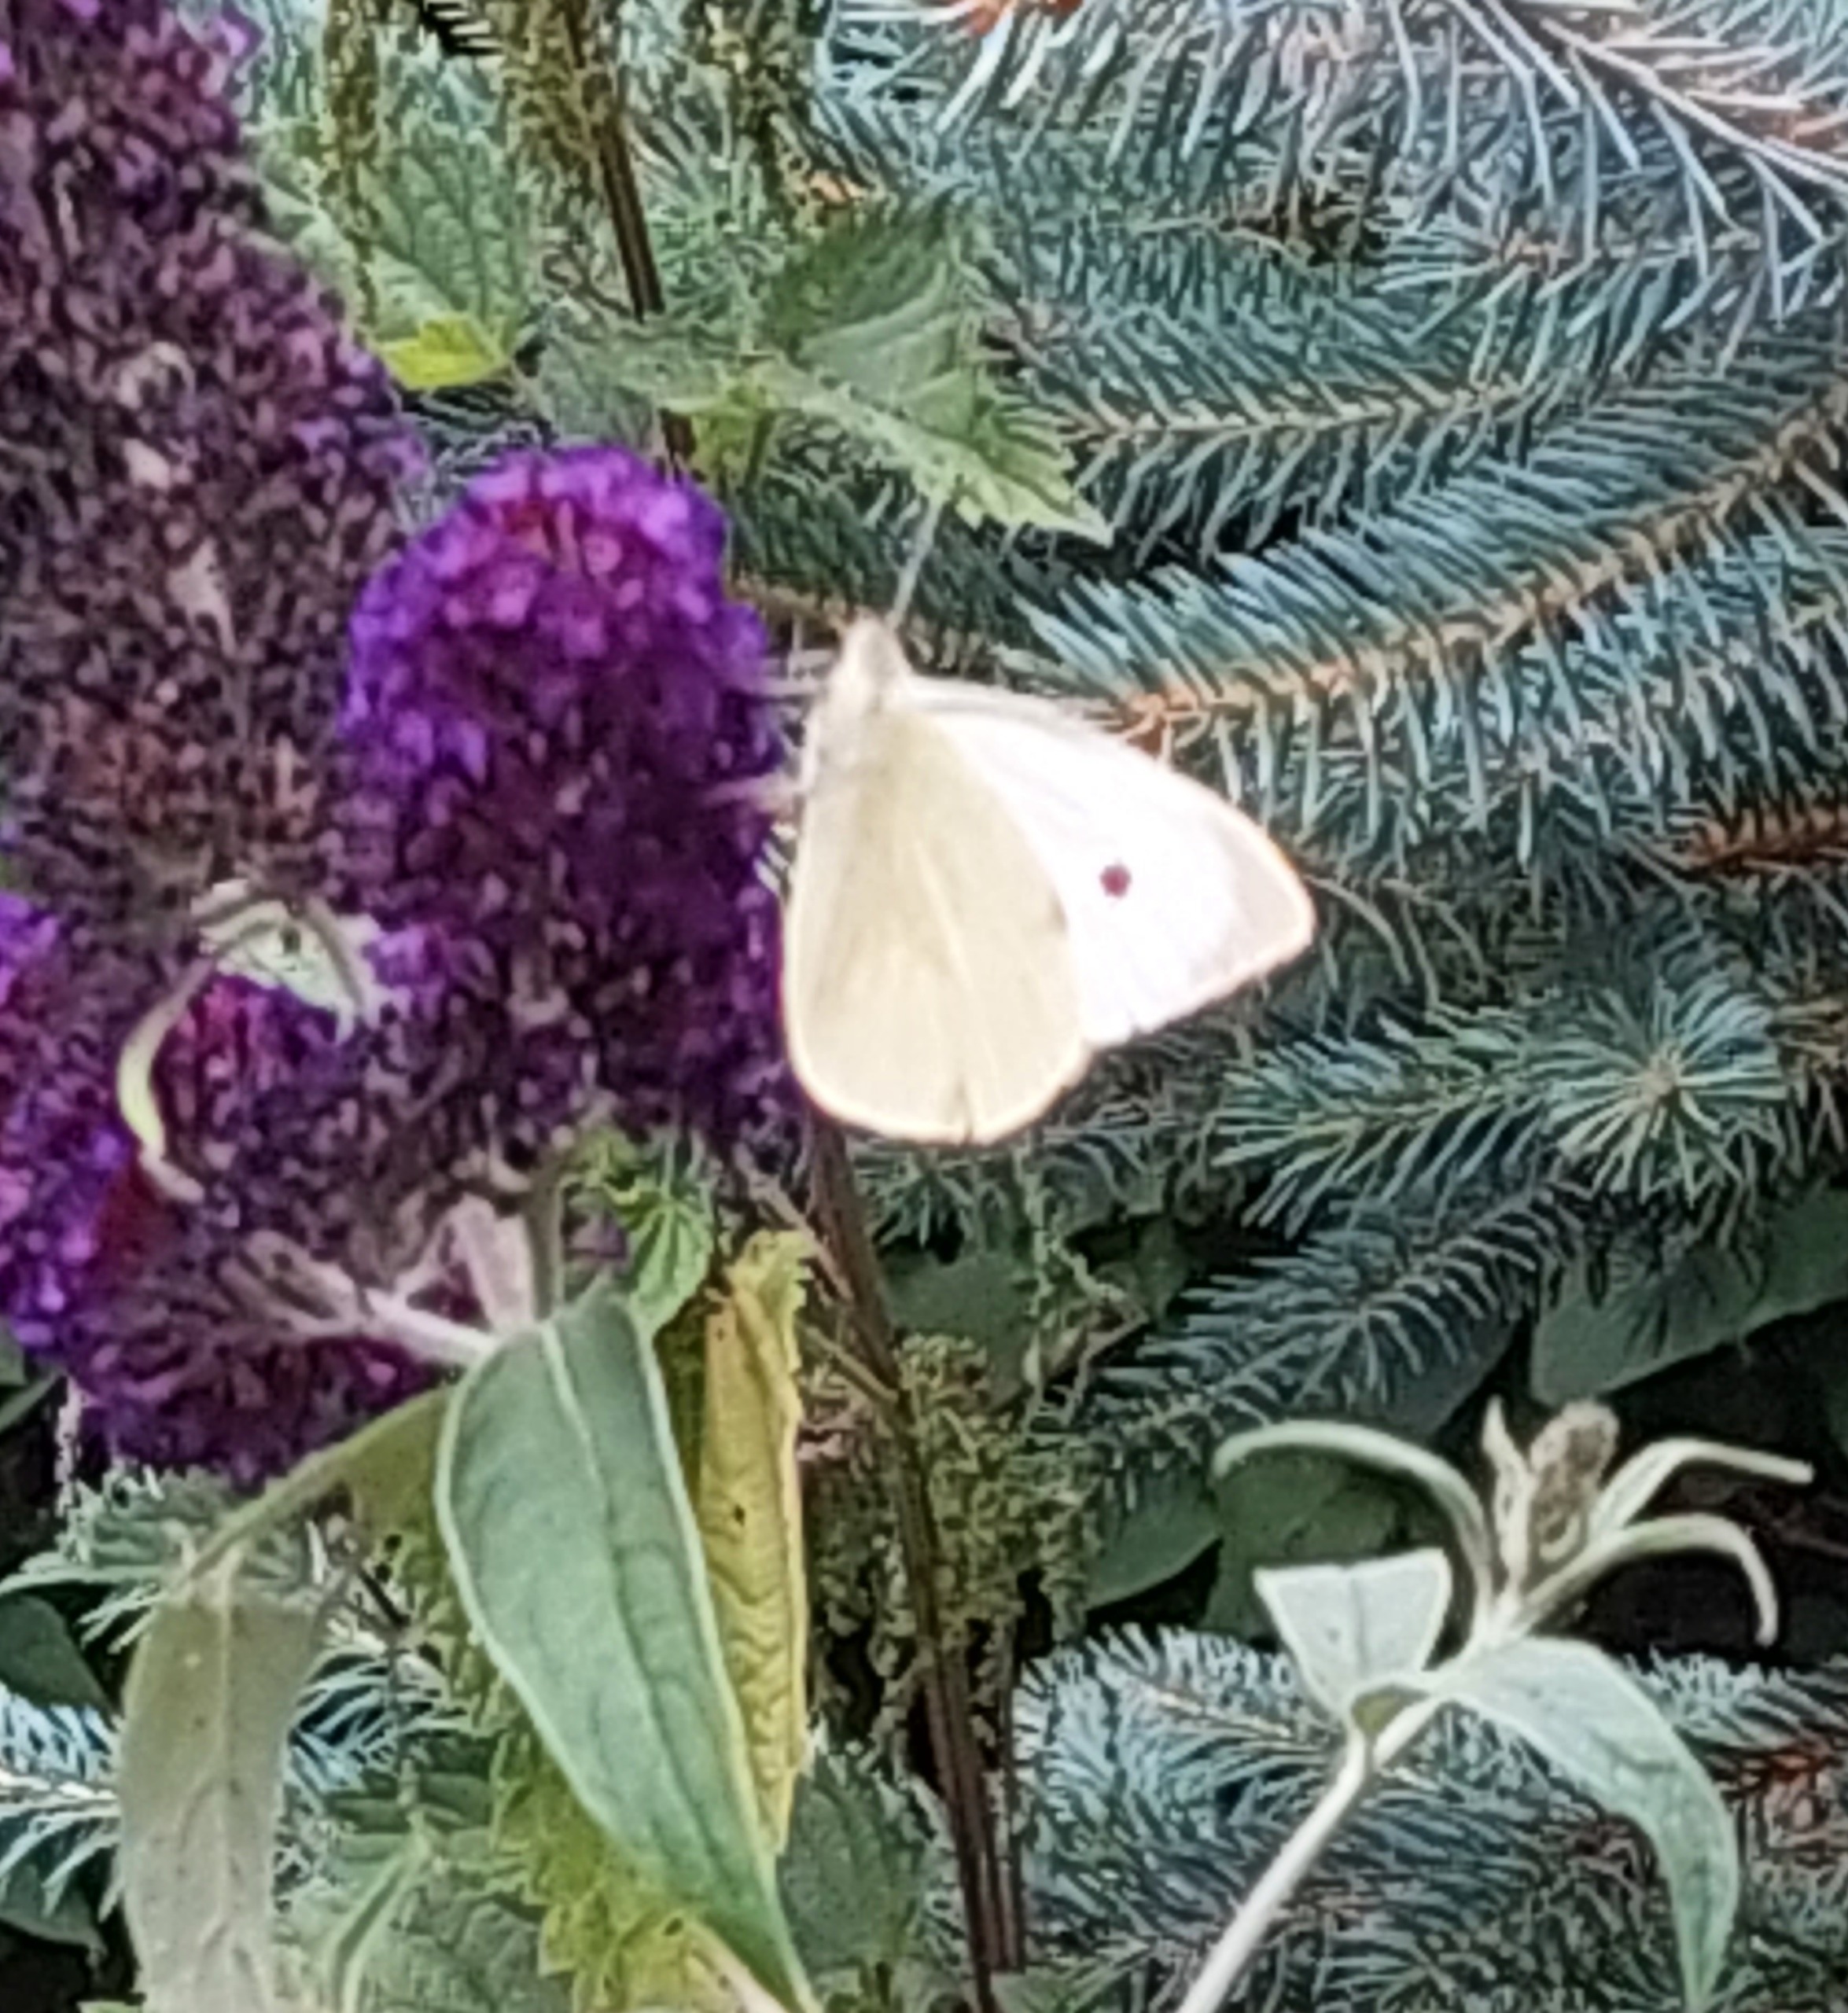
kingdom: Animalia
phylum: Arthropoda
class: Insecta
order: Lepidoptera
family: Pieridae
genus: Pieris
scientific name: Pieris brassicae
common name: Stor kålsommerfugl
